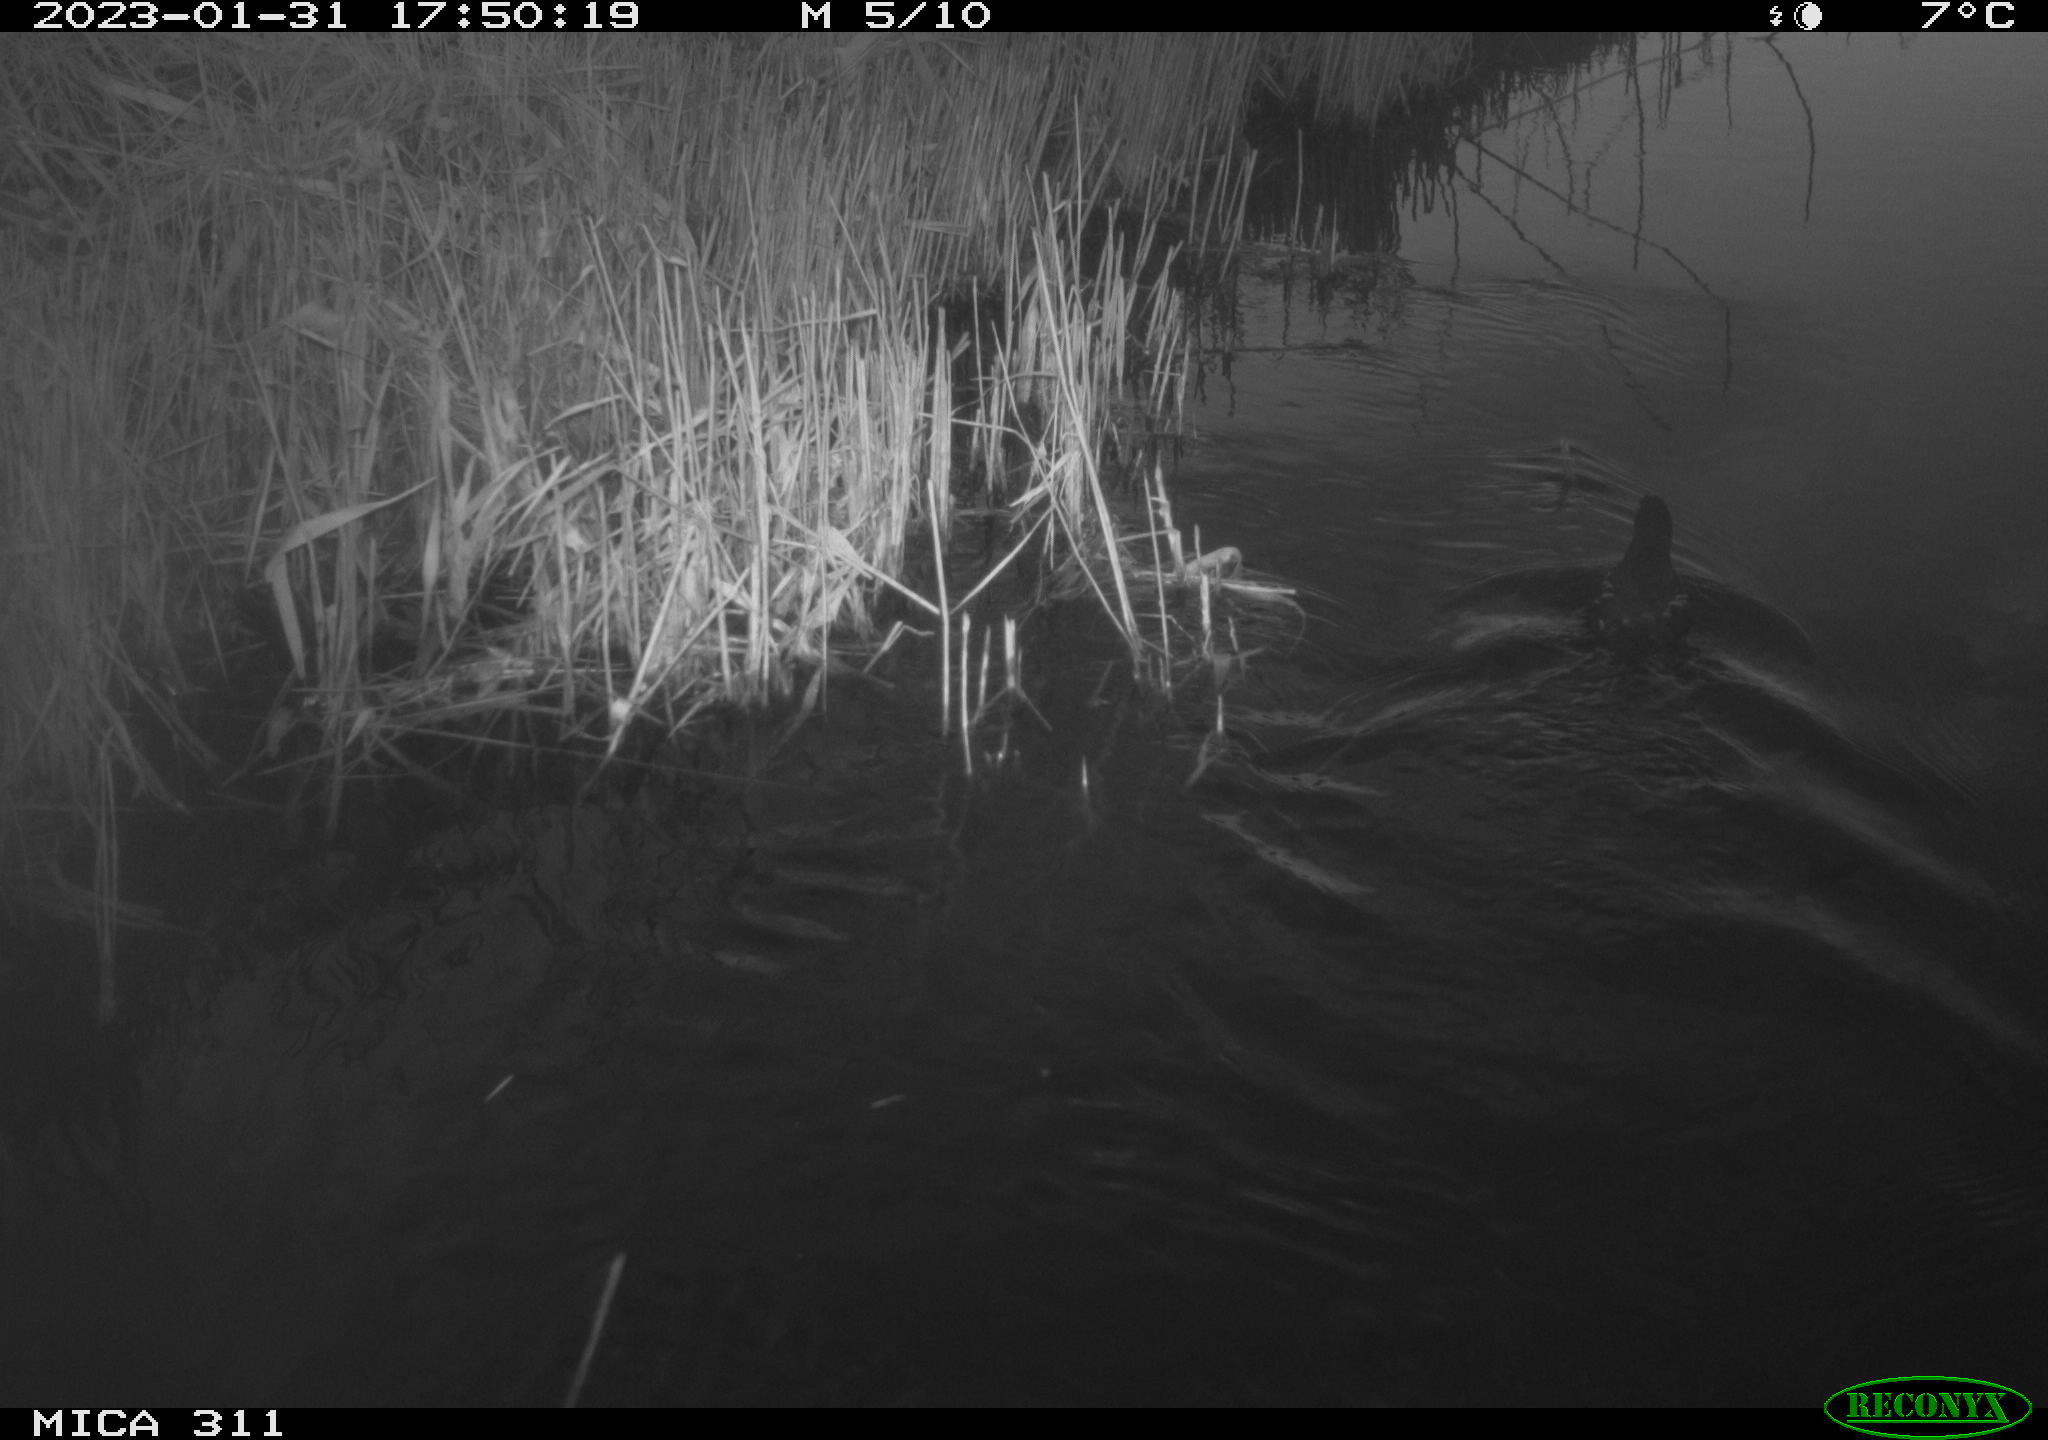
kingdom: Animalia
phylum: Chordata
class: Aves
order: Gruiformes
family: Rallidae
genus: Gallinula
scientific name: Gallinula chloropus
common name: Common moorhen
